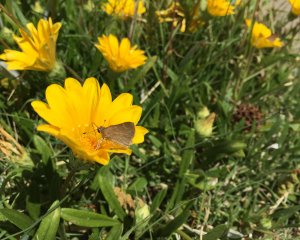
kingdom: Animalia
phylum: Arthropoda
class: Insecta
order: Lepidoptera
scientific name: Lepidoptera
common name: Butterflies
